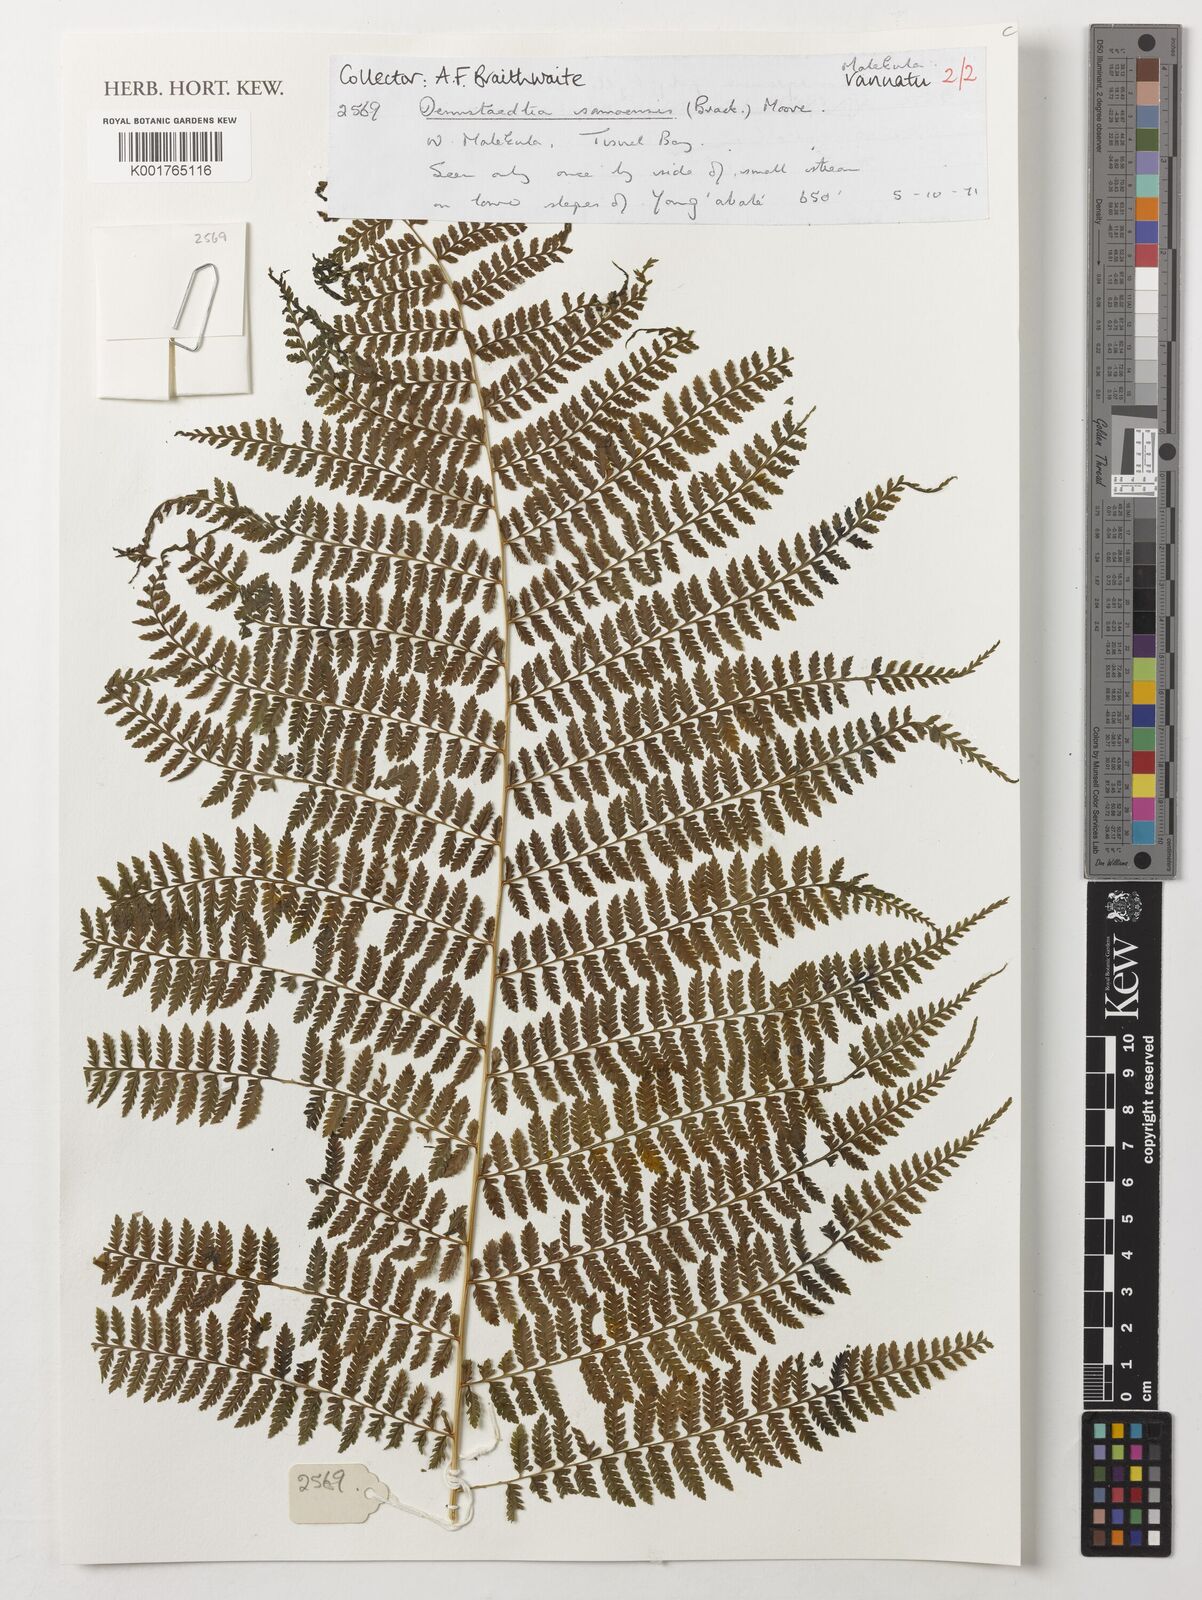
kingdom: Plantae
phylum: Tracheophyta
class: Polypodiopsida
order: Polypodiales
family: Dennstaedtiaceae
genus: Dennstaedtia
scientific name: Dennstaedtia samoensis
